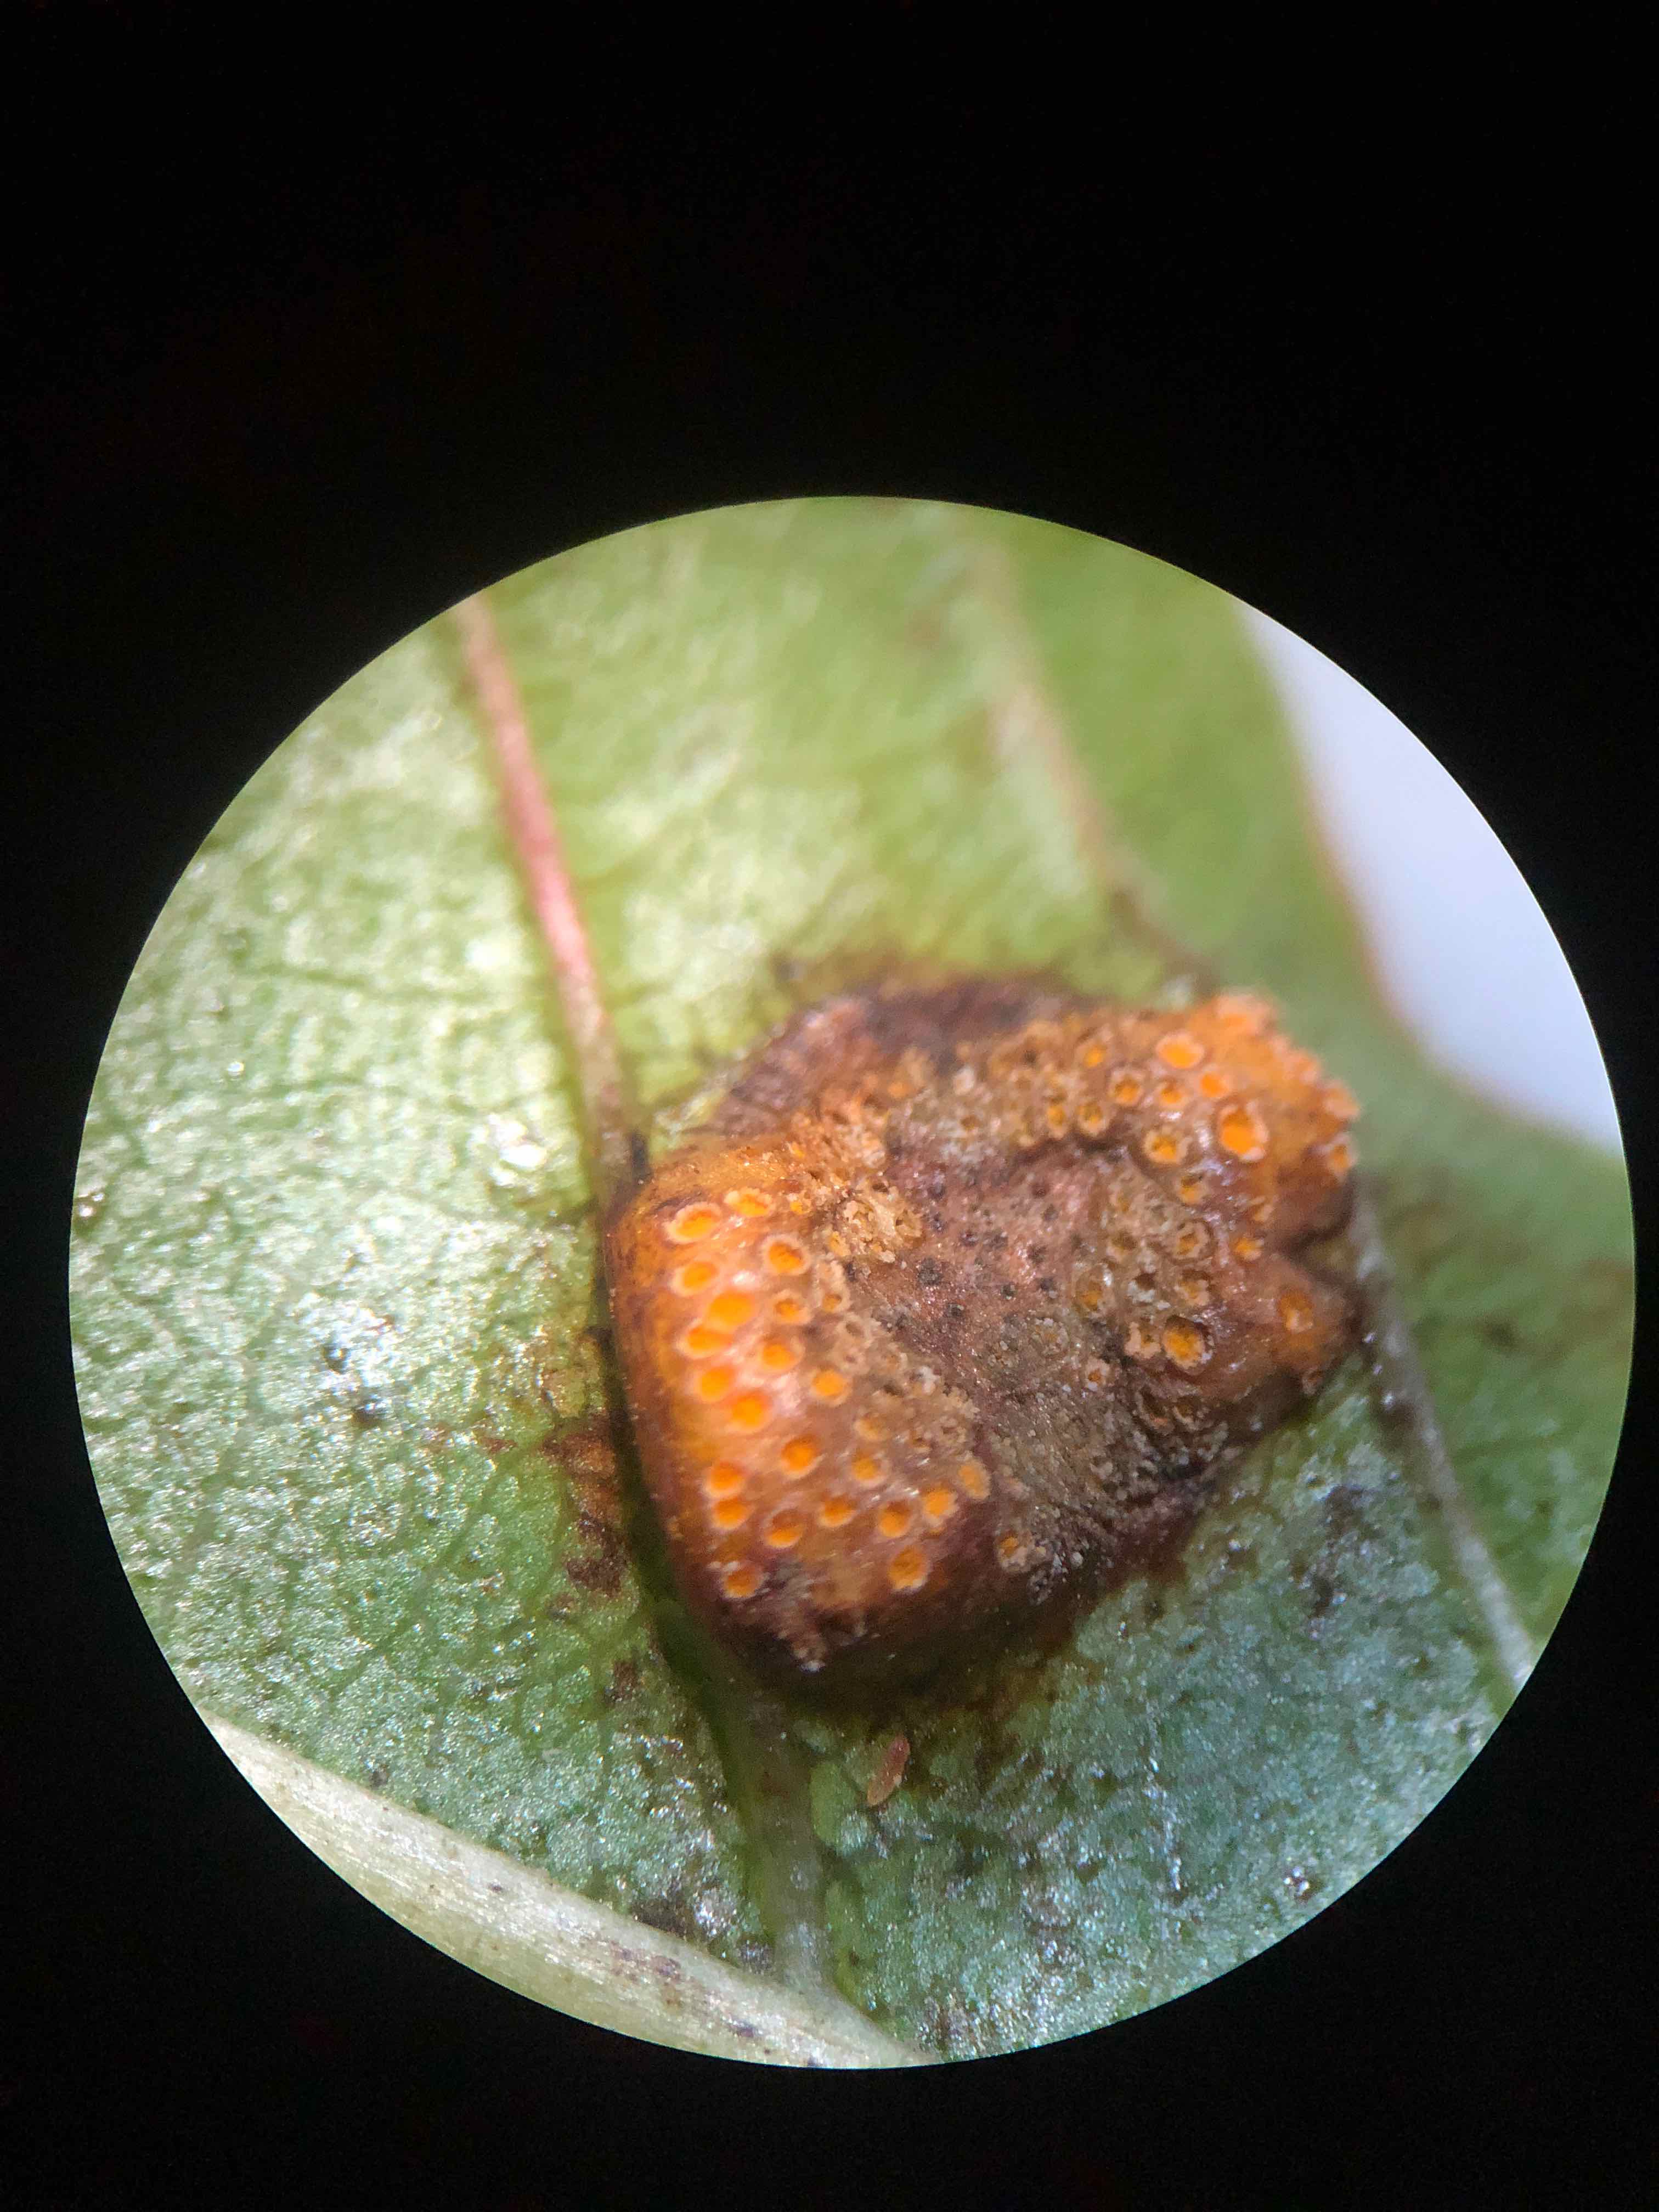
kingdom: Fungi
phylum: Basidiomycota
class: Pucciniomycetes
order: Pucciniales
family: Pucciniaceae
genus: Puccinia
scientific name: Puccinia coronata
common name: Crown rust
